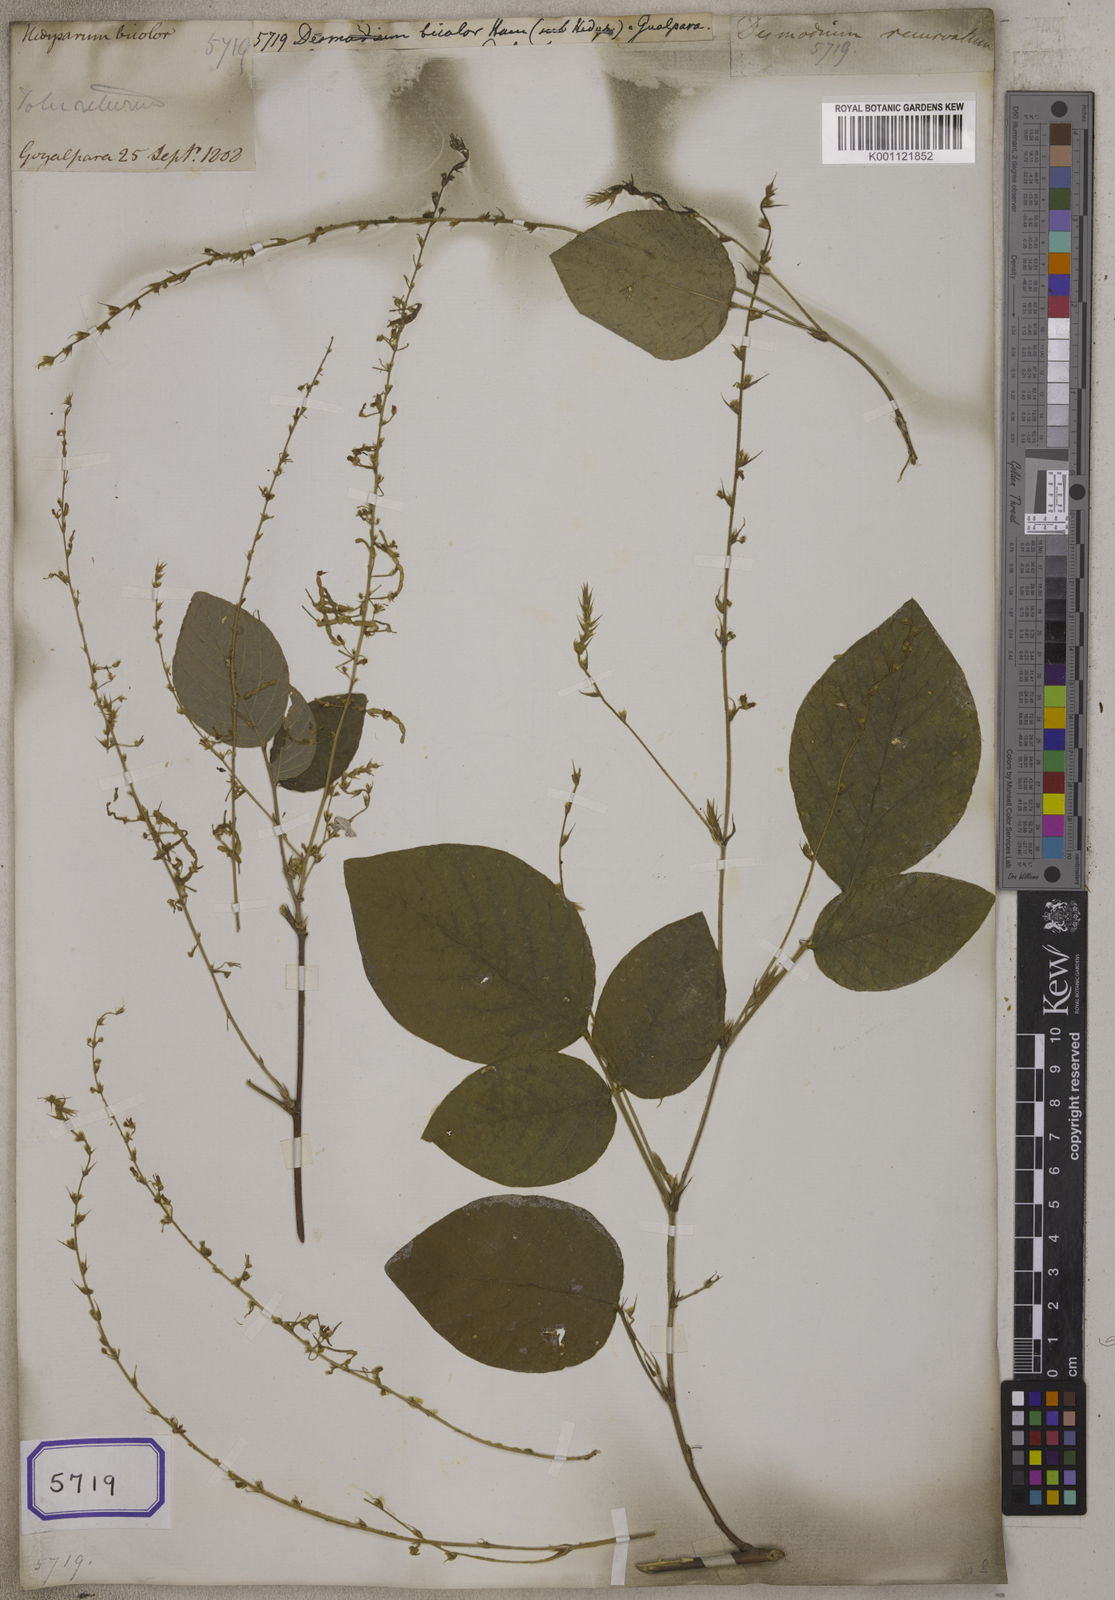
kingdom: Plantae
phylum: Tracheophyta
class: Magnoliopsida
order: Fabales
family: Fabaceae
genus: Desmodium
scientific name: Desmodium
